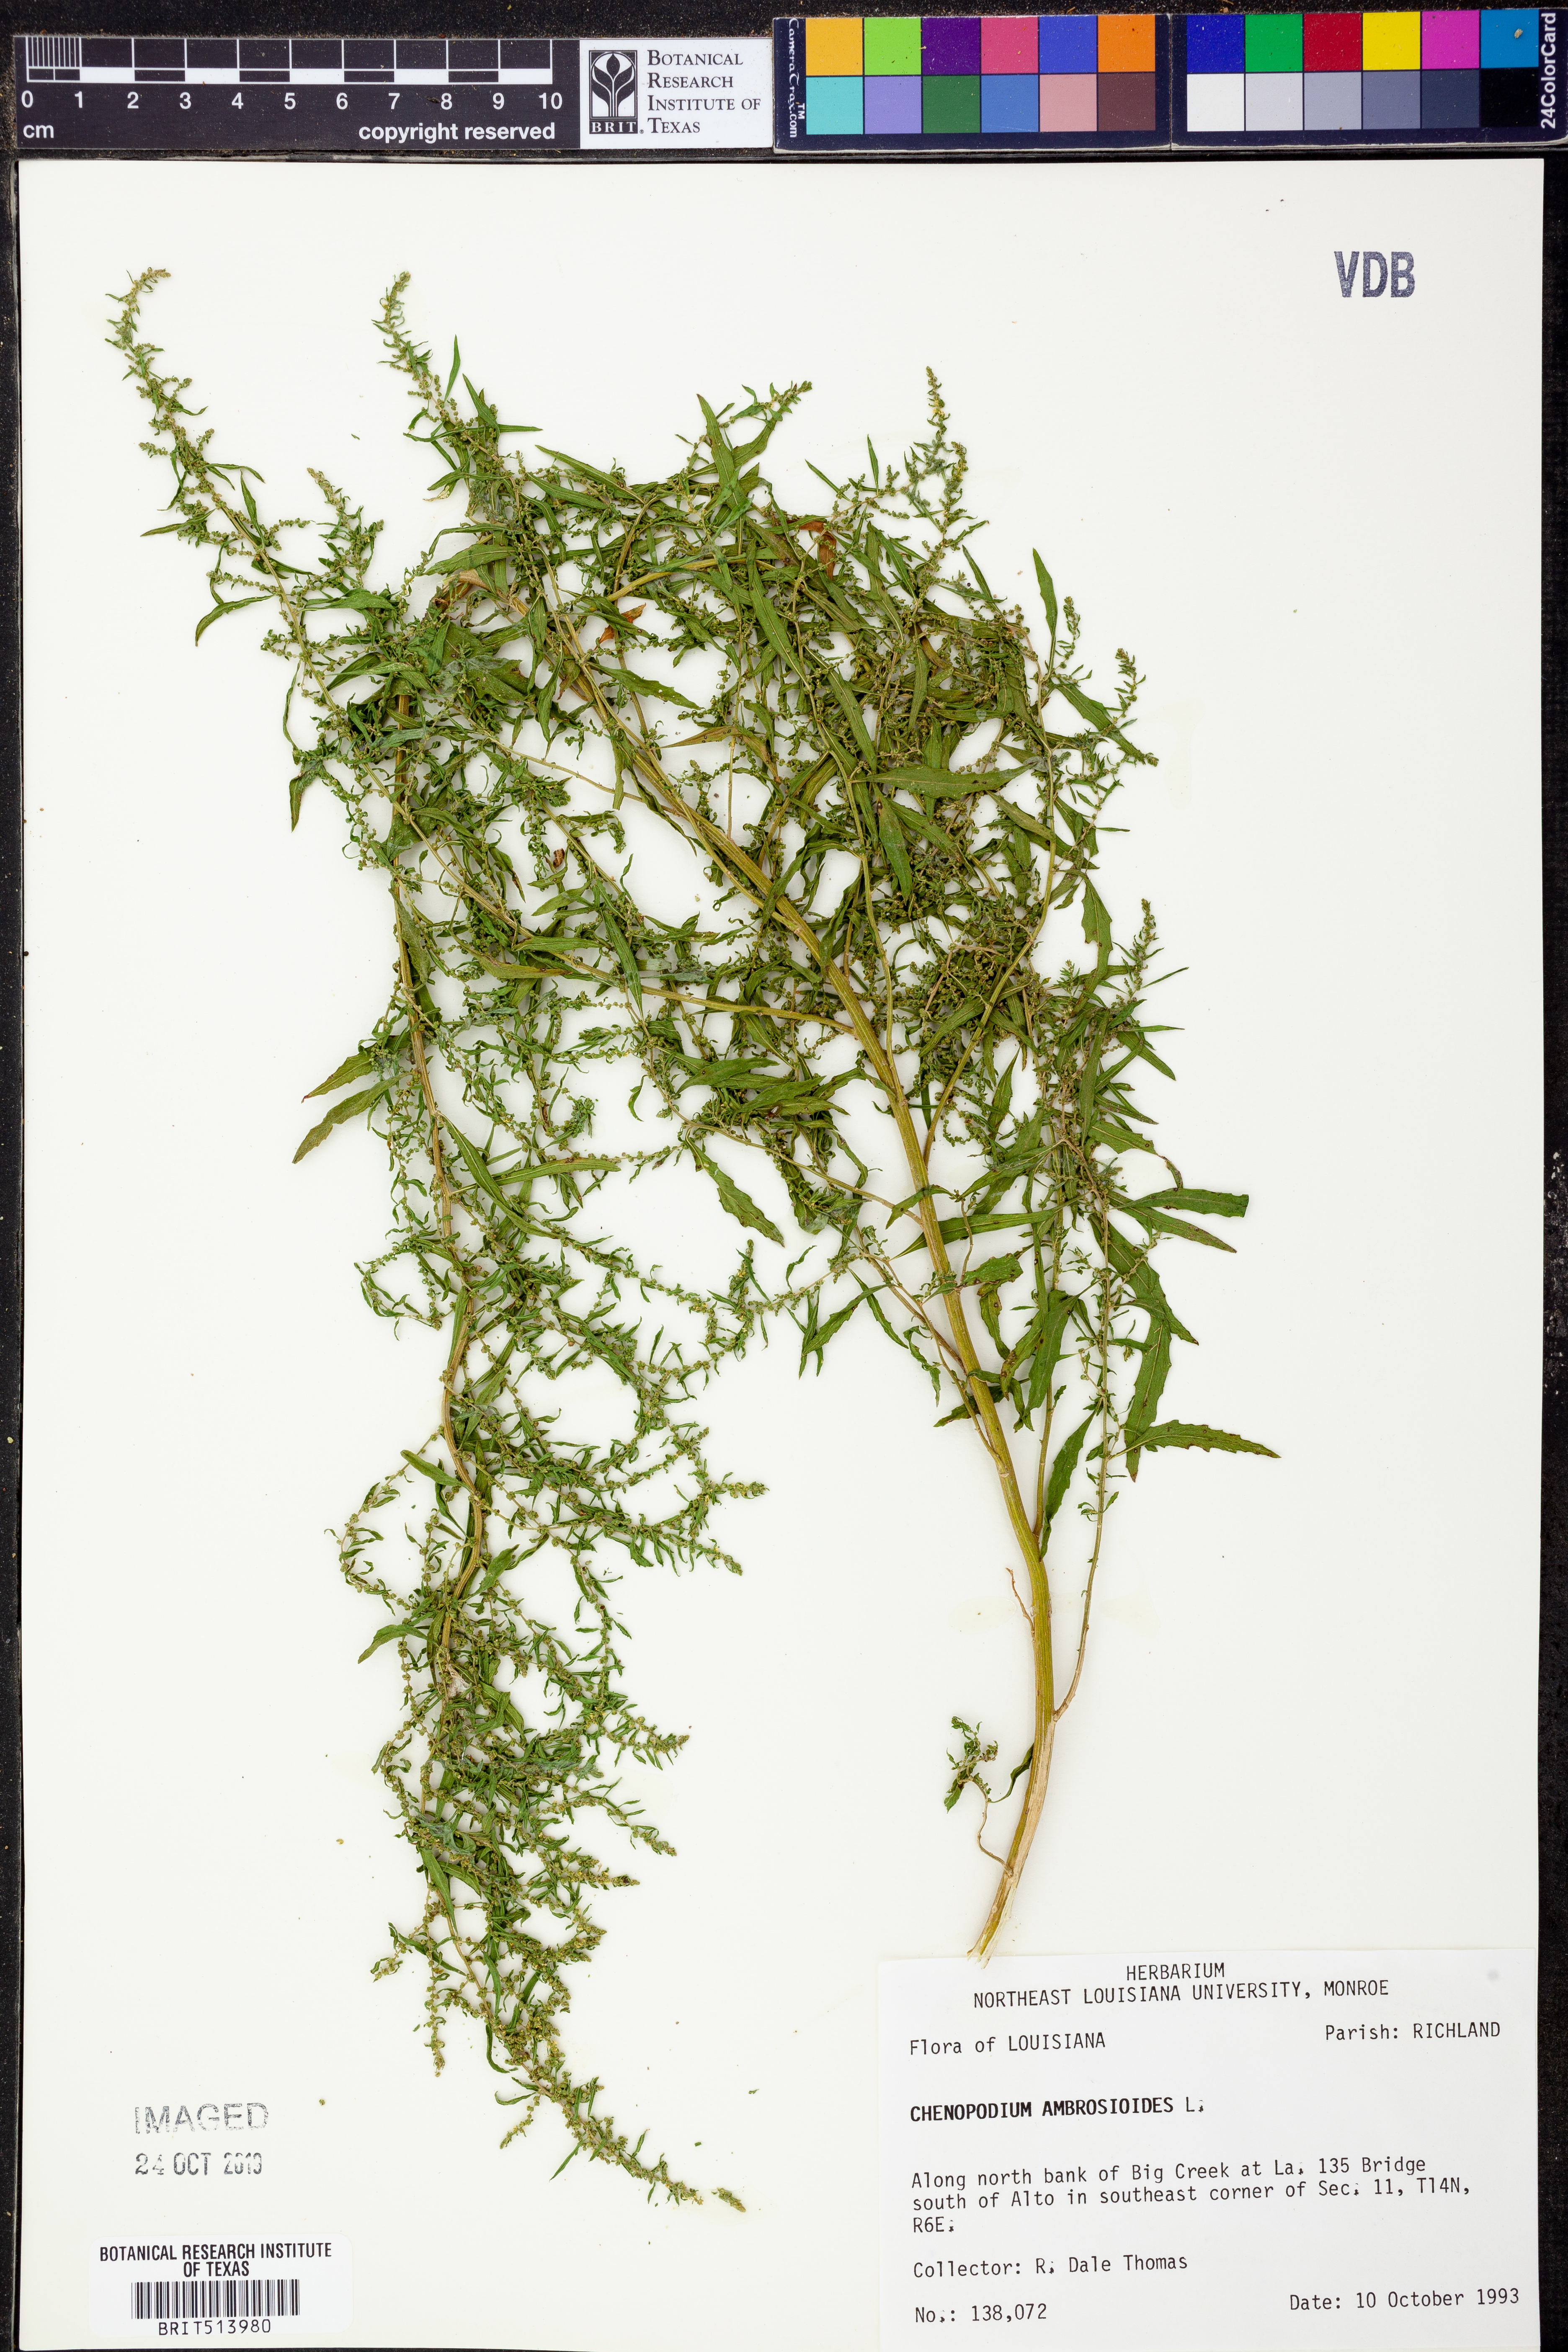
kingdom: Plantae
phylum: Tracheophyta
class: Magnoliopsida
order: Caryophyllales
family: Amaranthaceae
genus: Dysphania
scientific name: Dysphania ambrosioides
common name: Wormseed
